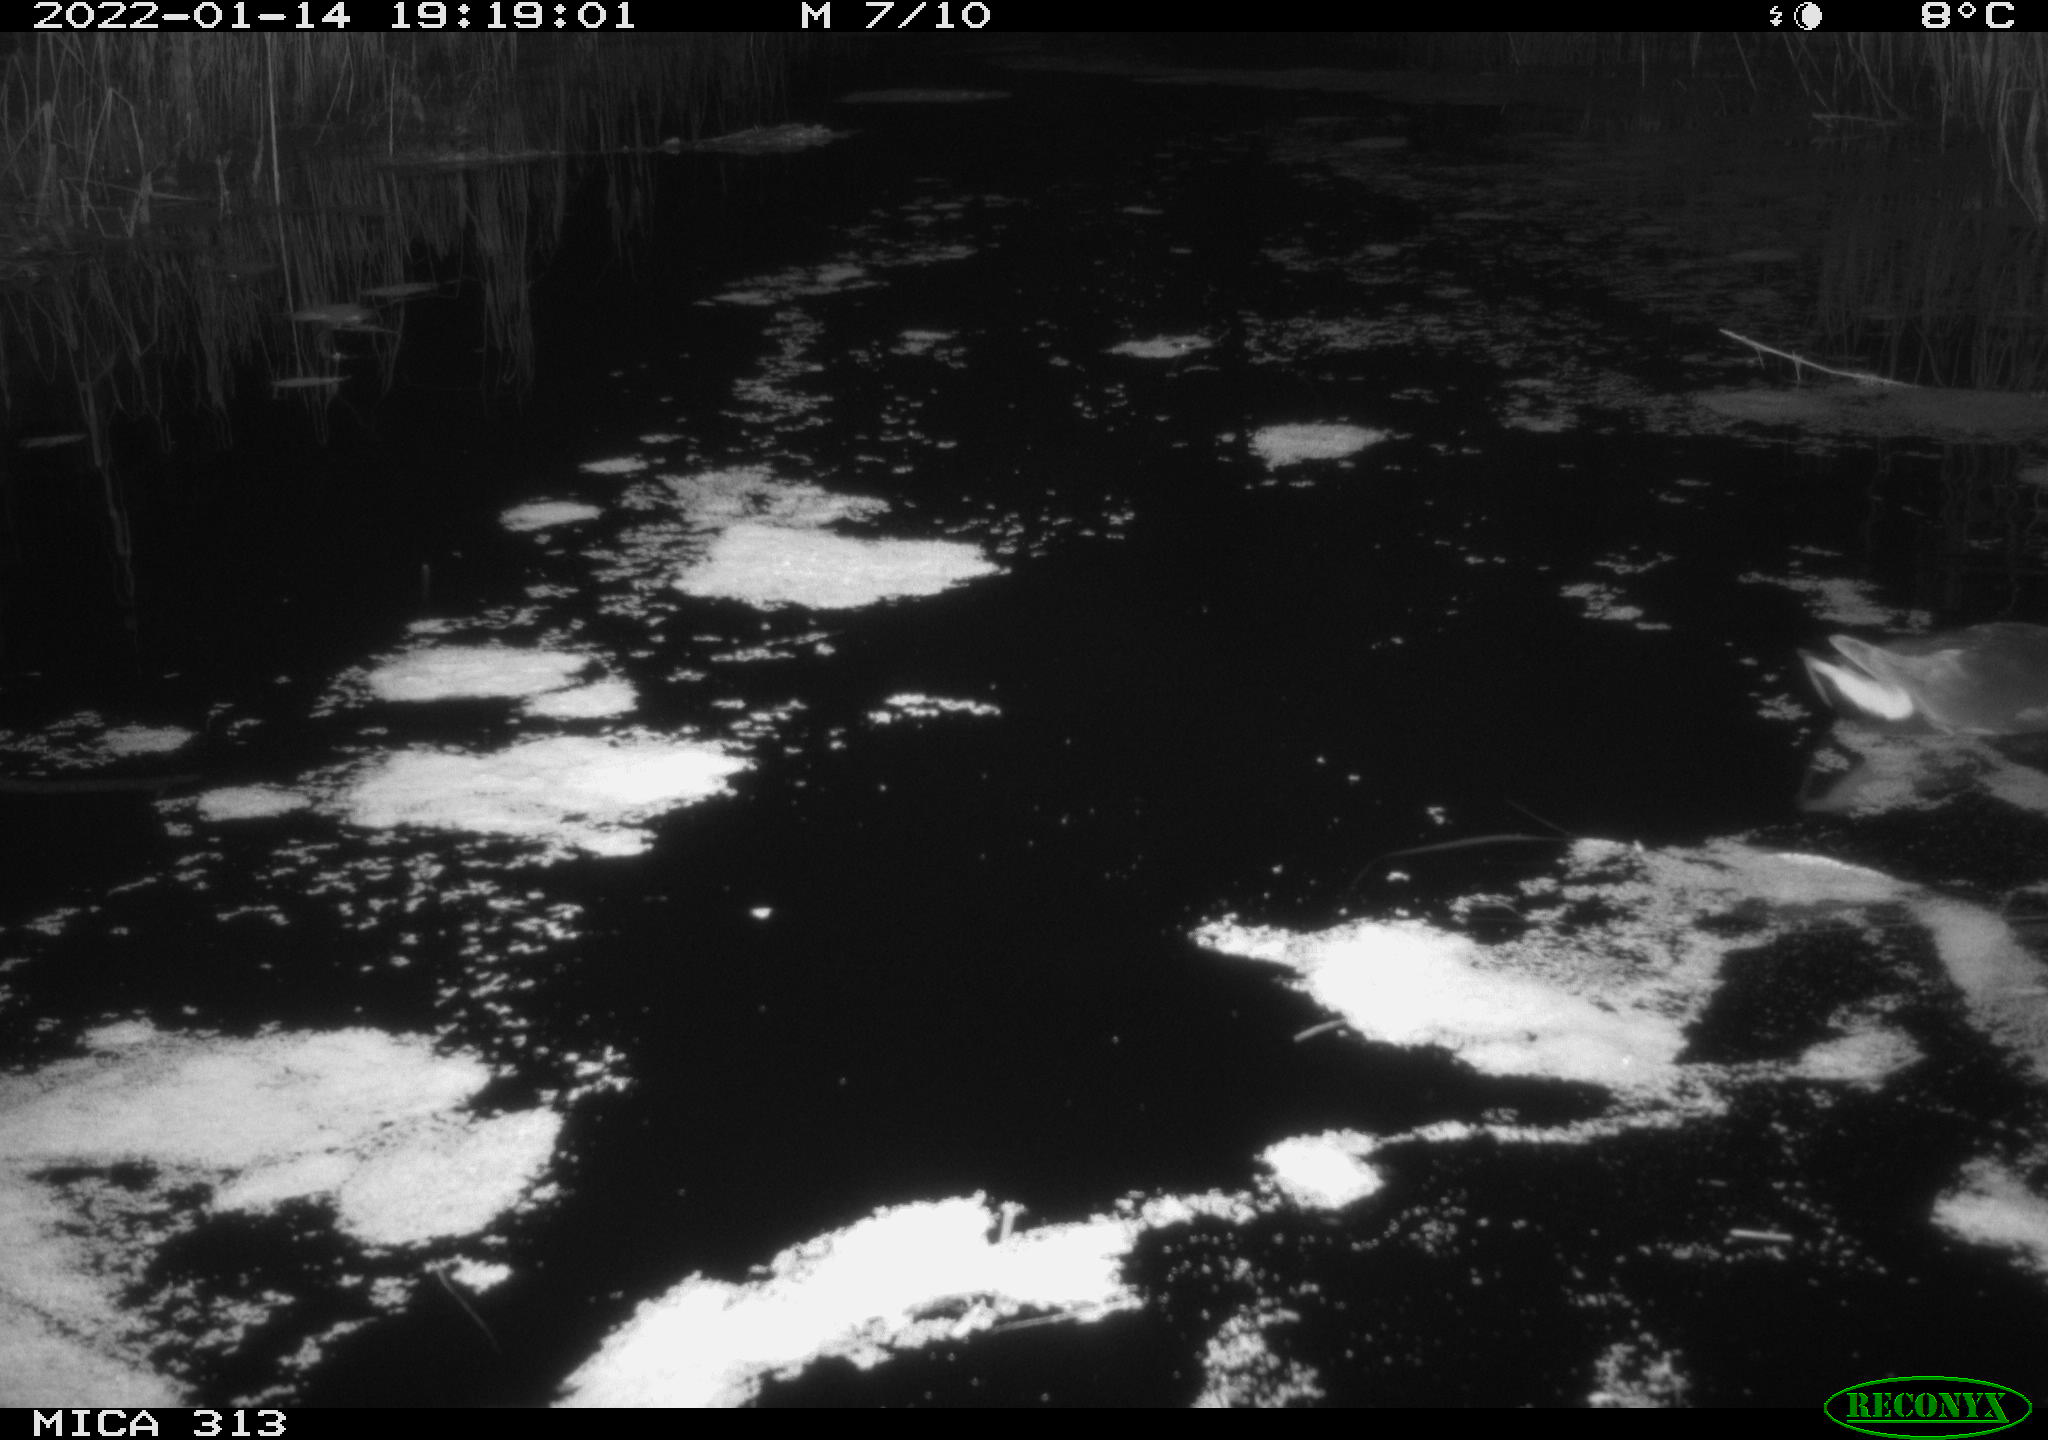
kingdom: Animalia
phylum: Chordata
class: Aves
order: Gruiformes
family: Rallidae
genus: Gallinula
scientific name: Gallinula chloropus
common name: Common moorhen
